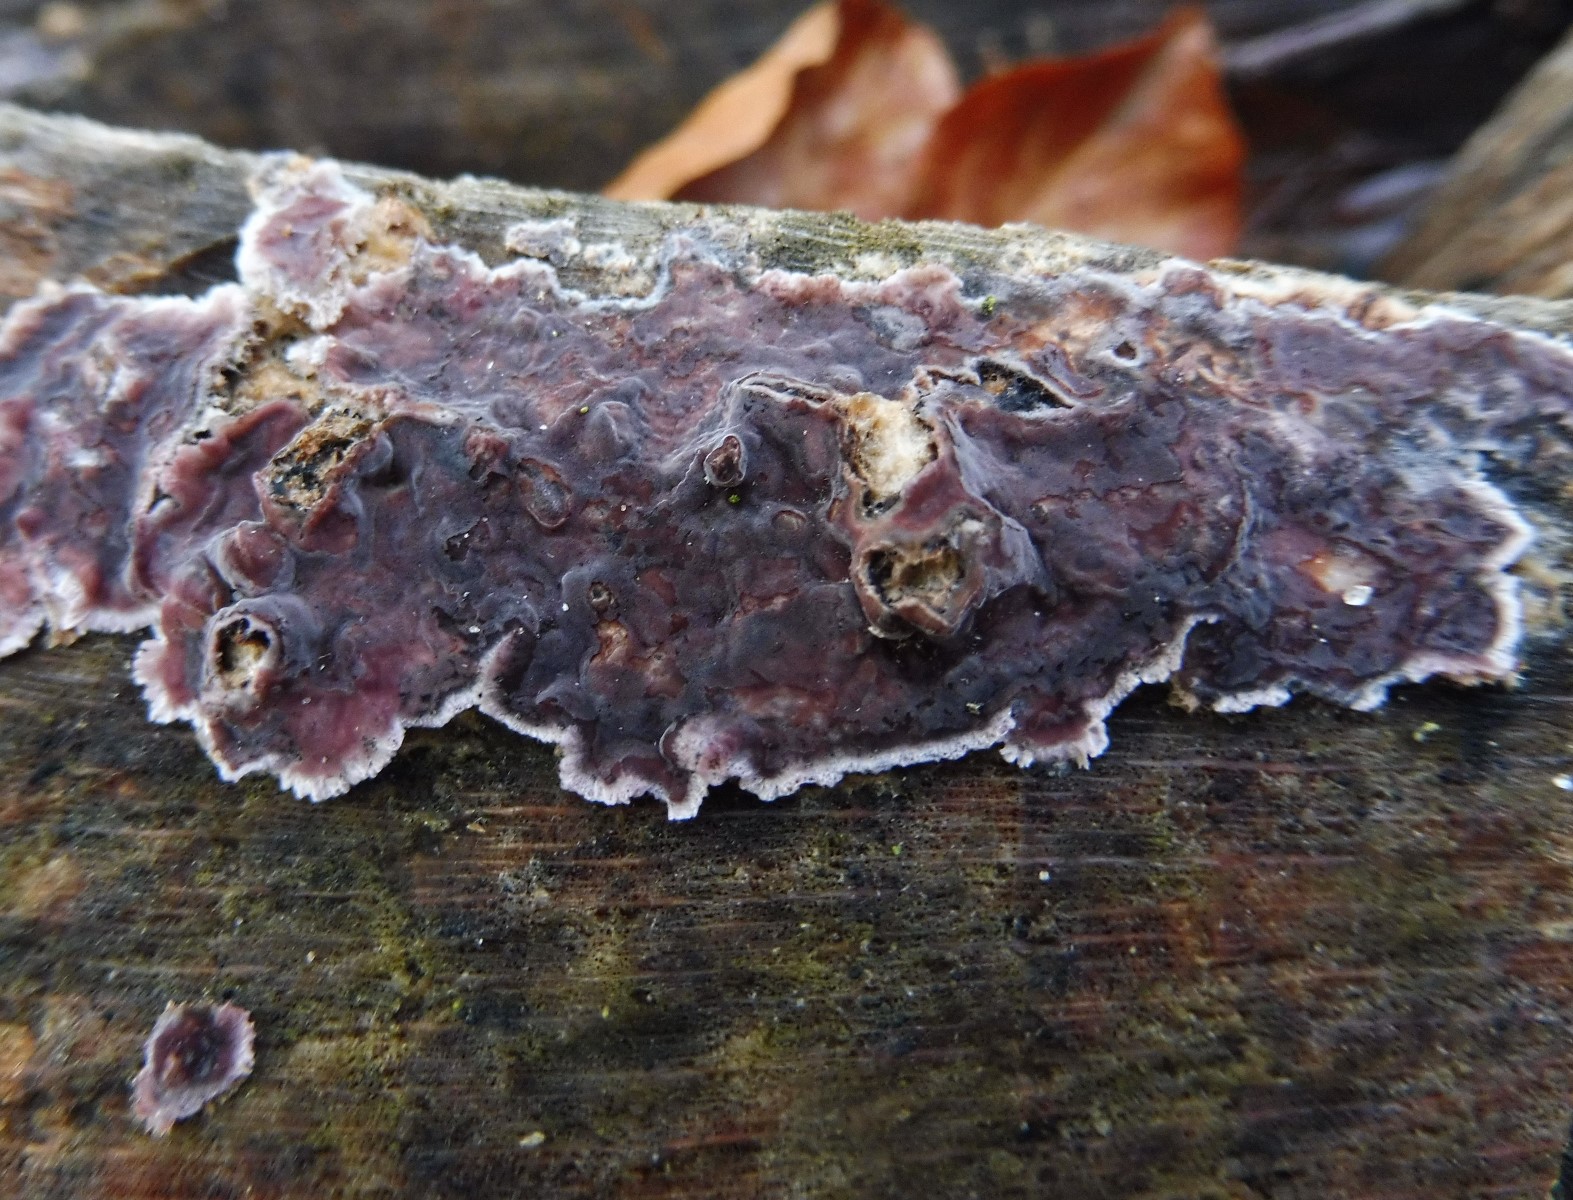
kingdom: Fungi
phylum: Basidiomycota
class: Agaricomycetes
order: Agaricales
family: Cyphellaceae
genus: Chondrostereum
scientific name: Chondrostereum purpureum
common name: purpurlædersvamp
